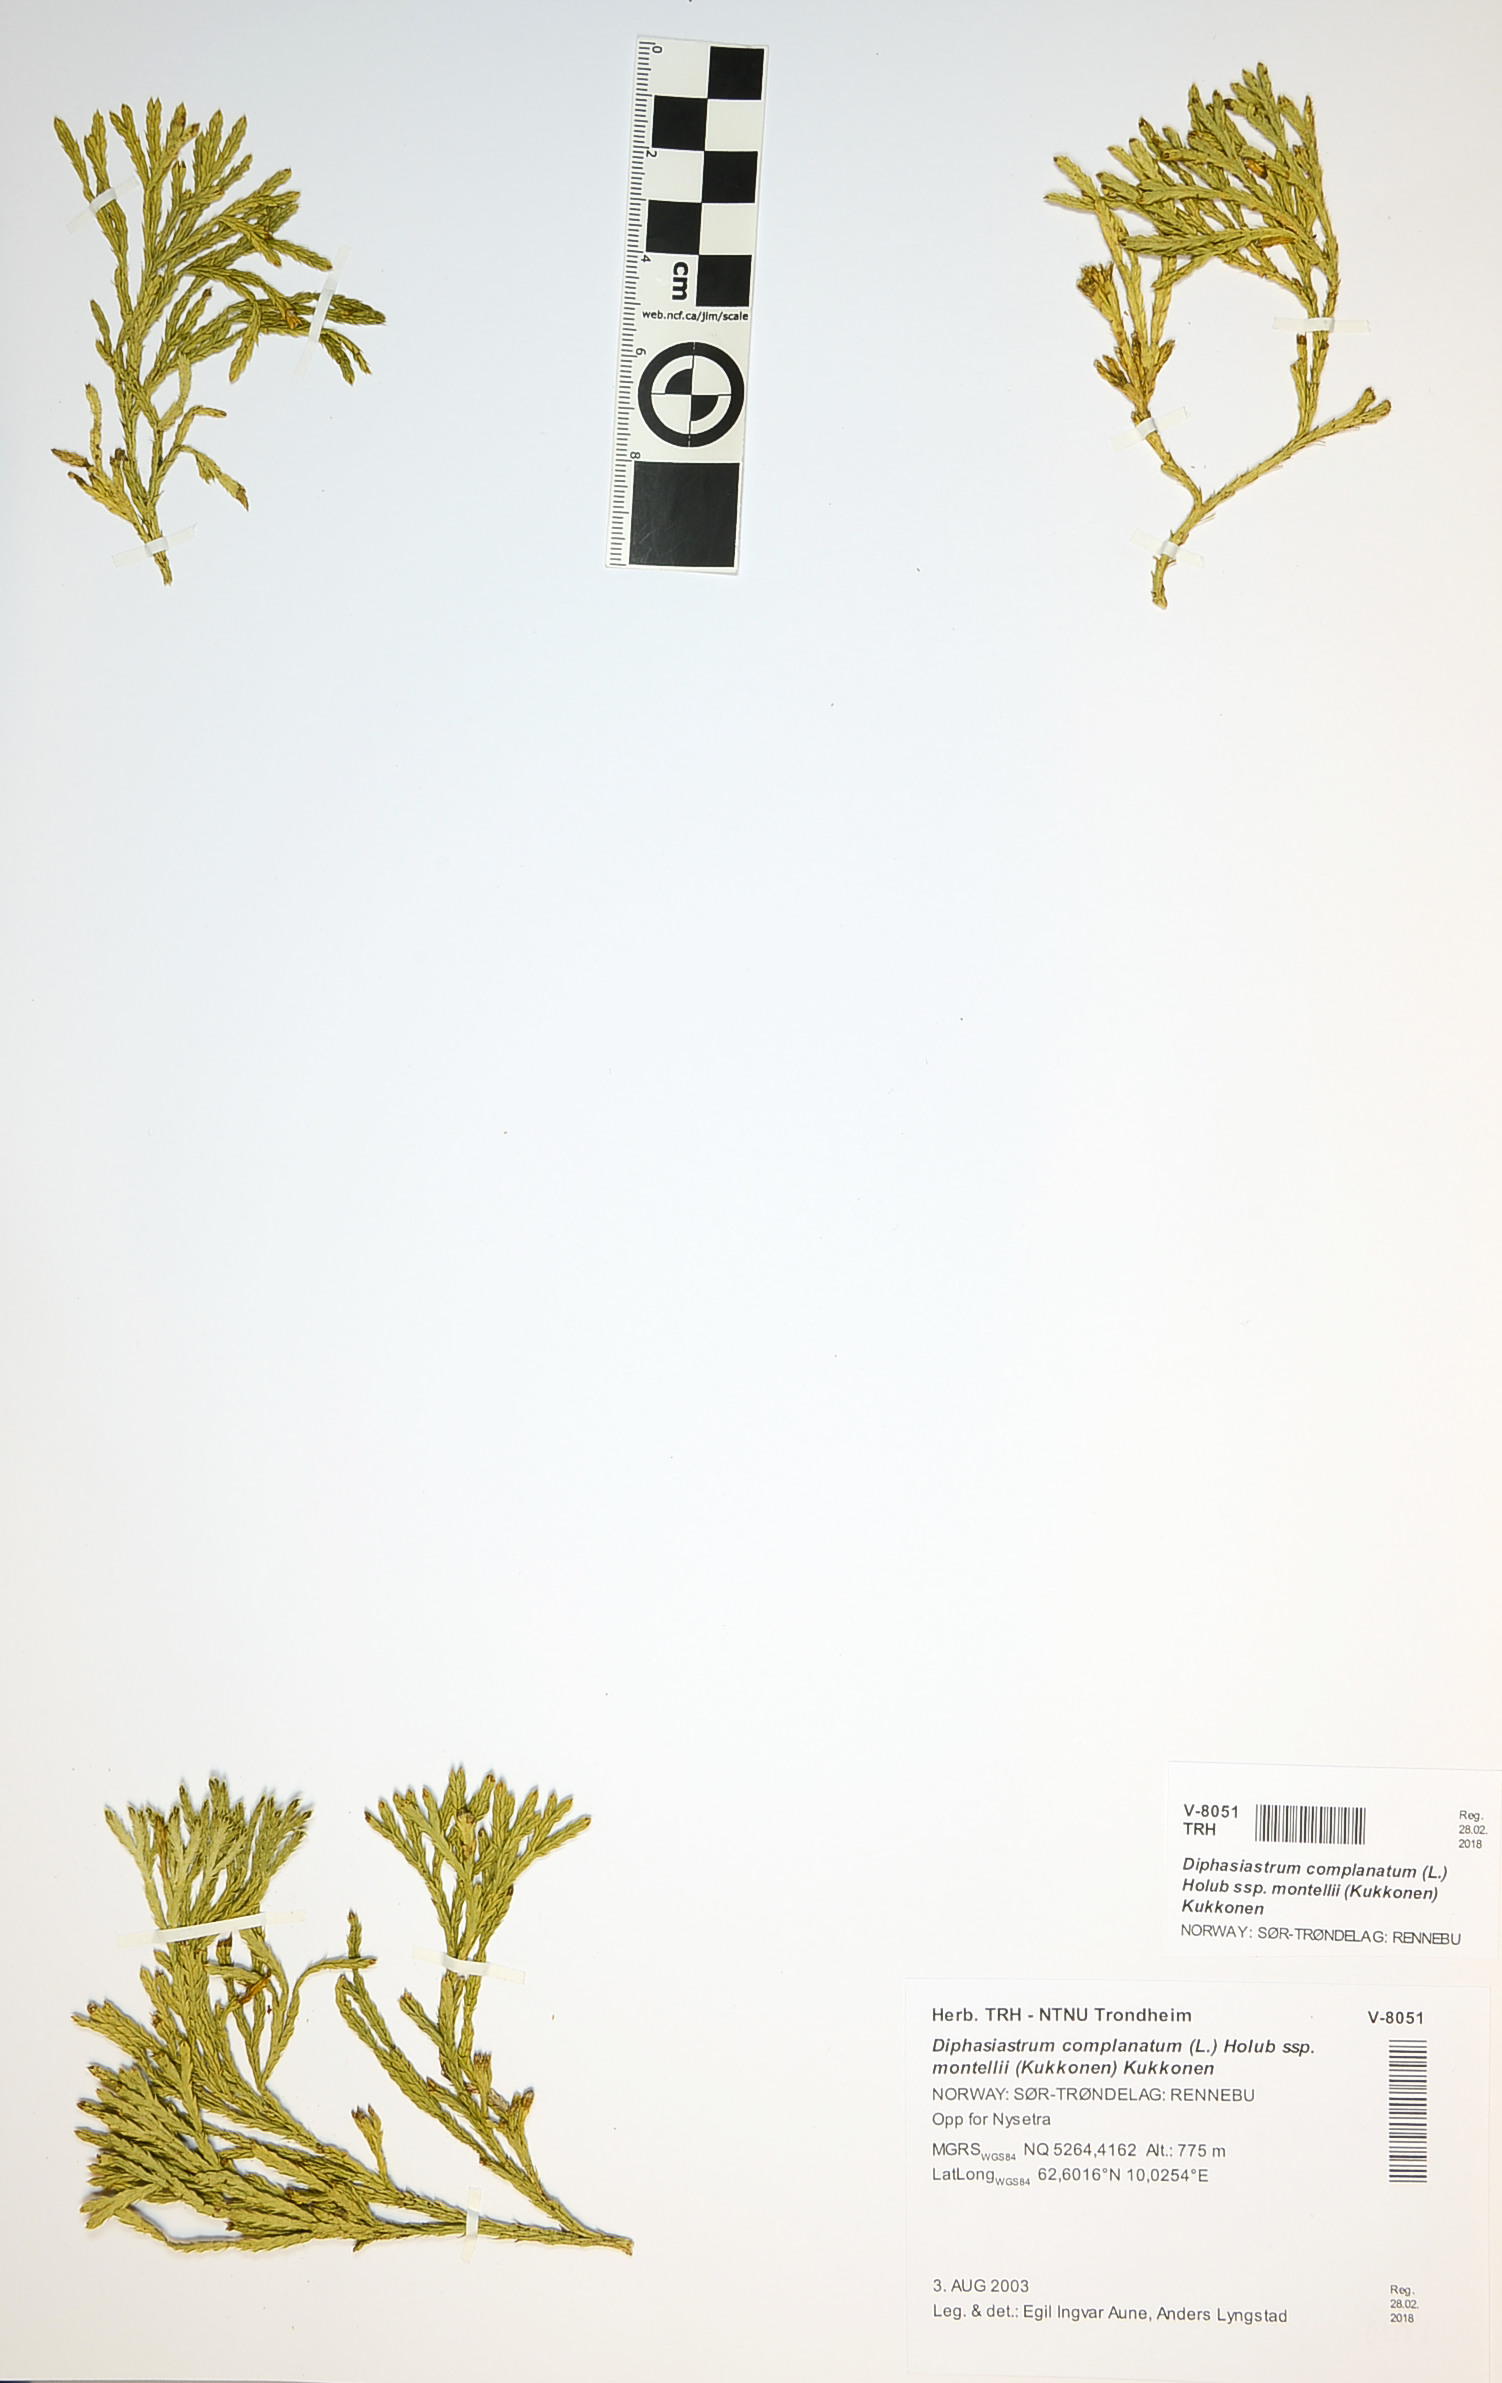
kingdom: Plantae
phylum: Tracheophyta
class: Lycopodiopsida
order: Lycopodiales
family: Lycopodiaceae
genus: Diphasiastrum
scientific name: Diphasiastrum complanatum
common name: Northern running-pine
